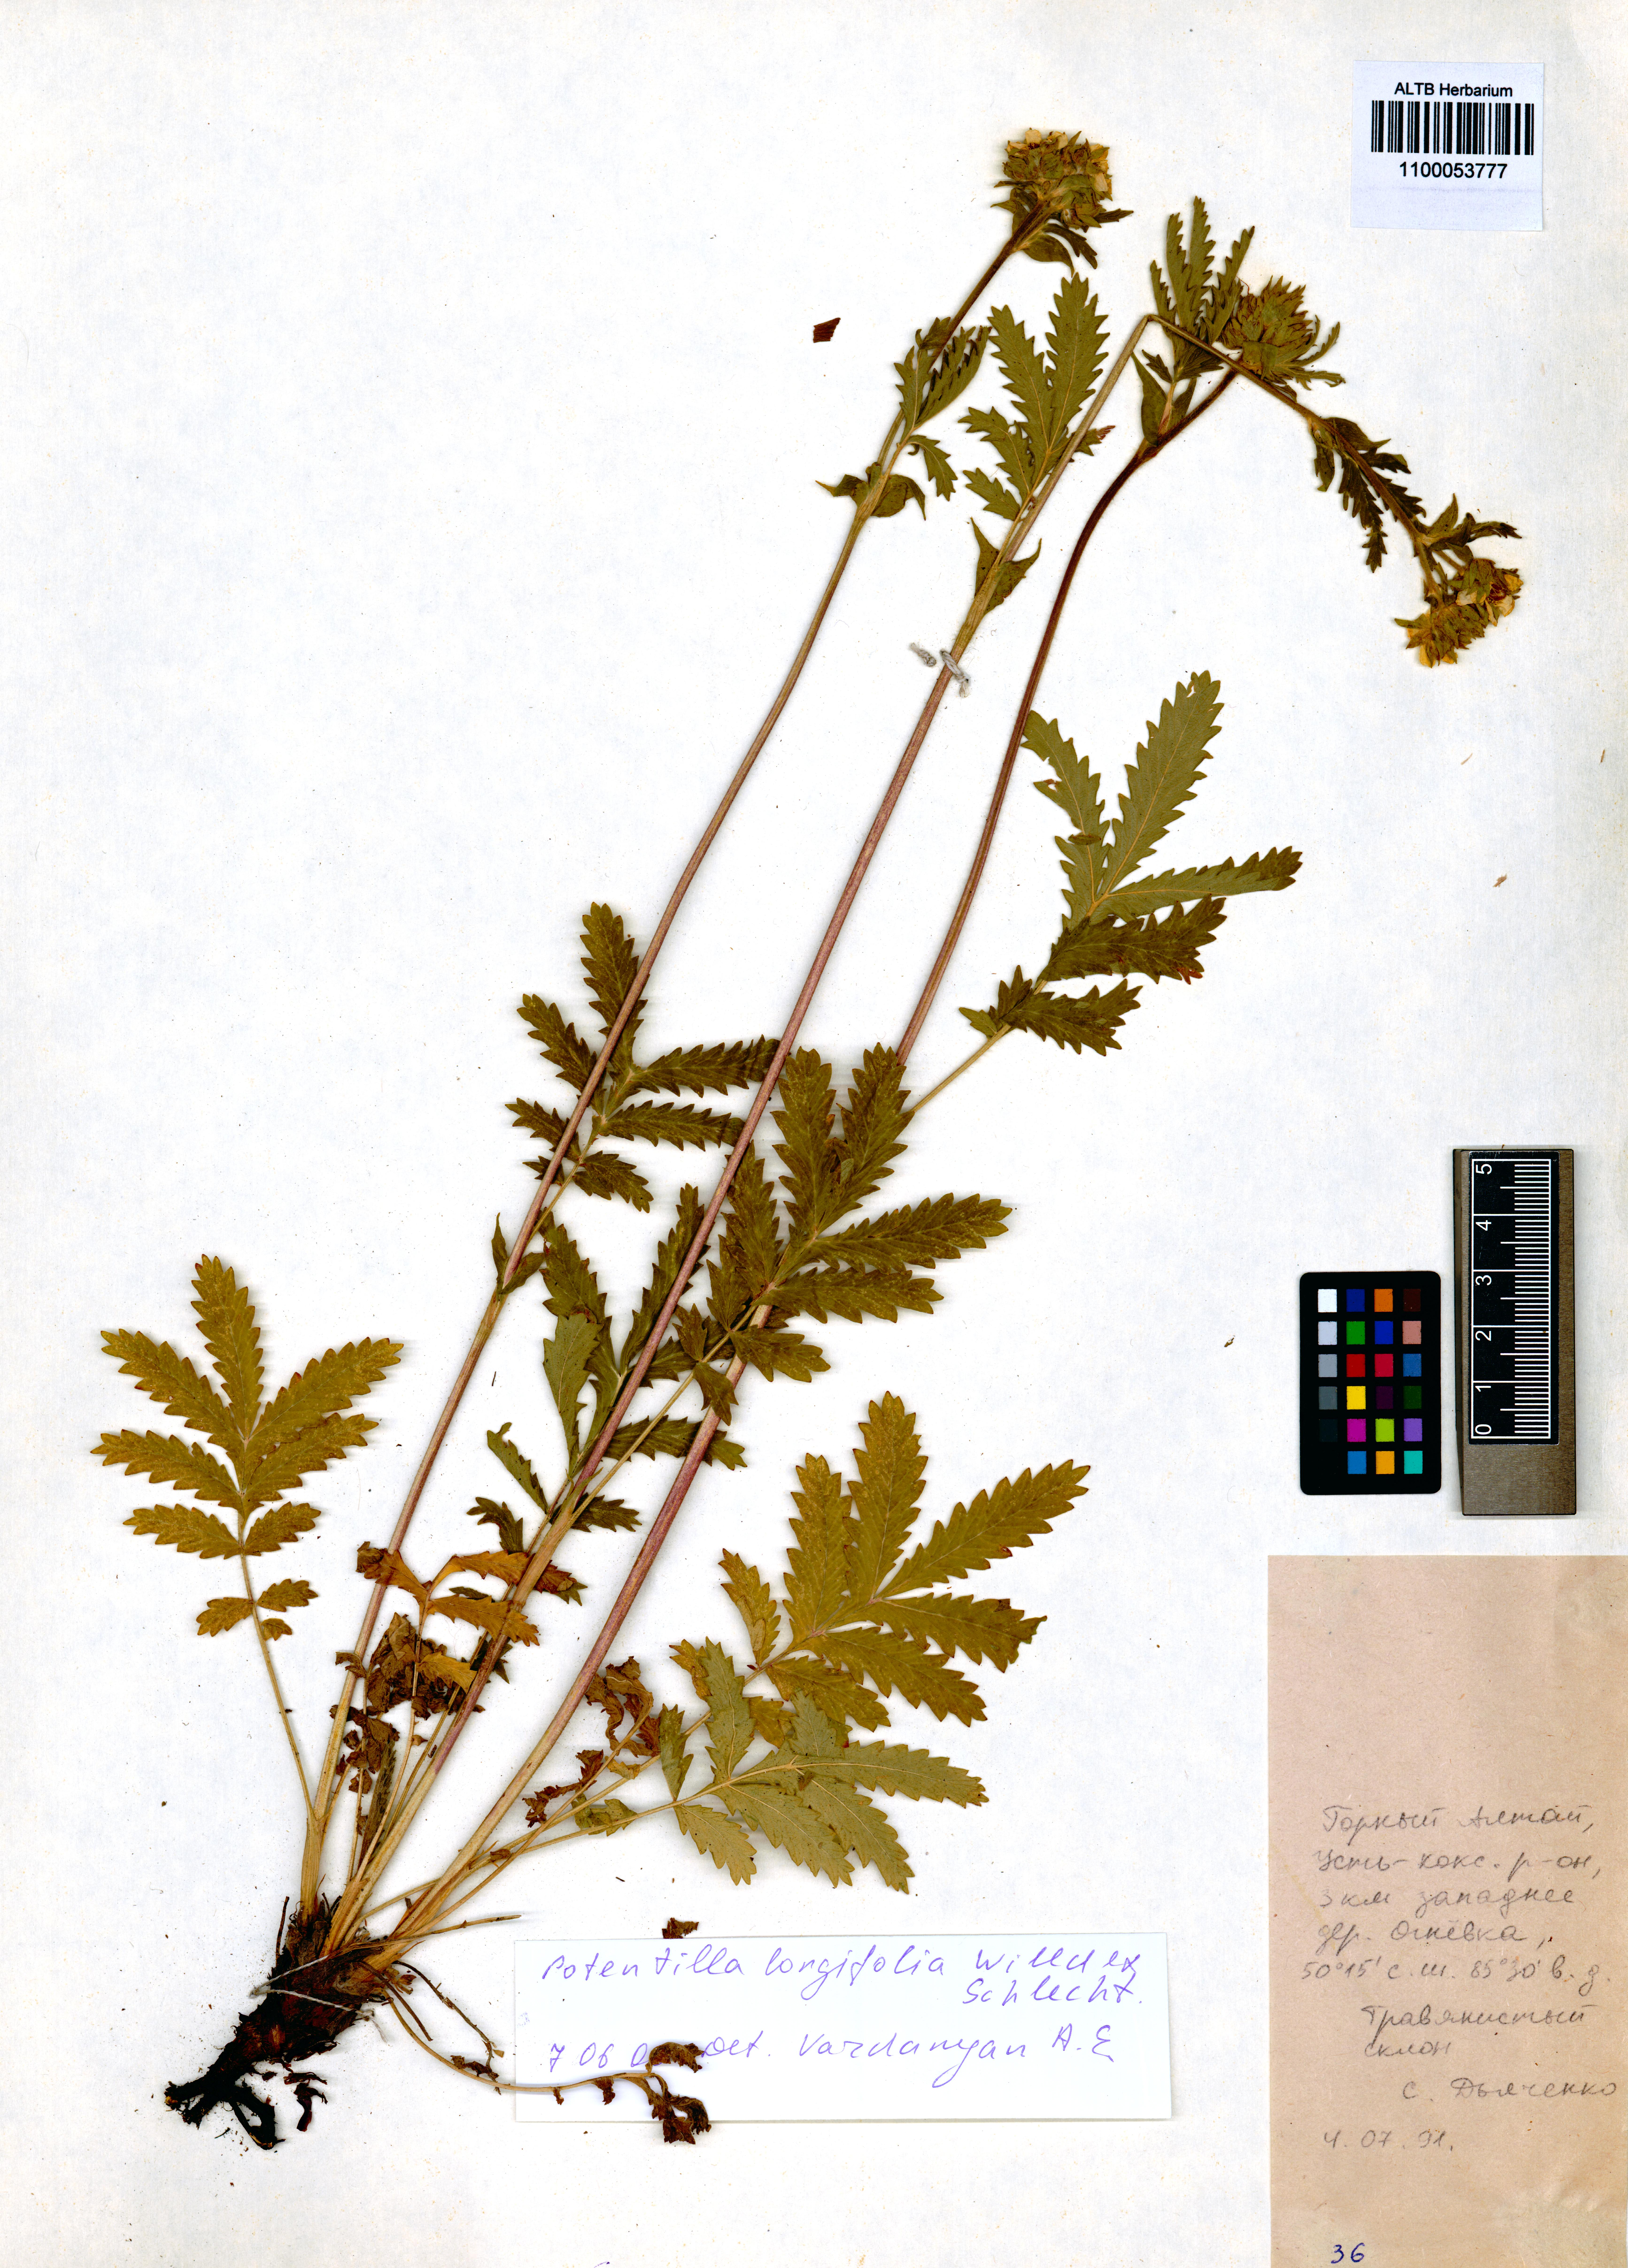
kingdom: Plantae
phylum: Tracheophyta
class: Magnoliopsida
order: Rosales
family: Rosaceae
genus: Potentilla
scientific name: Potentilla longifolia
